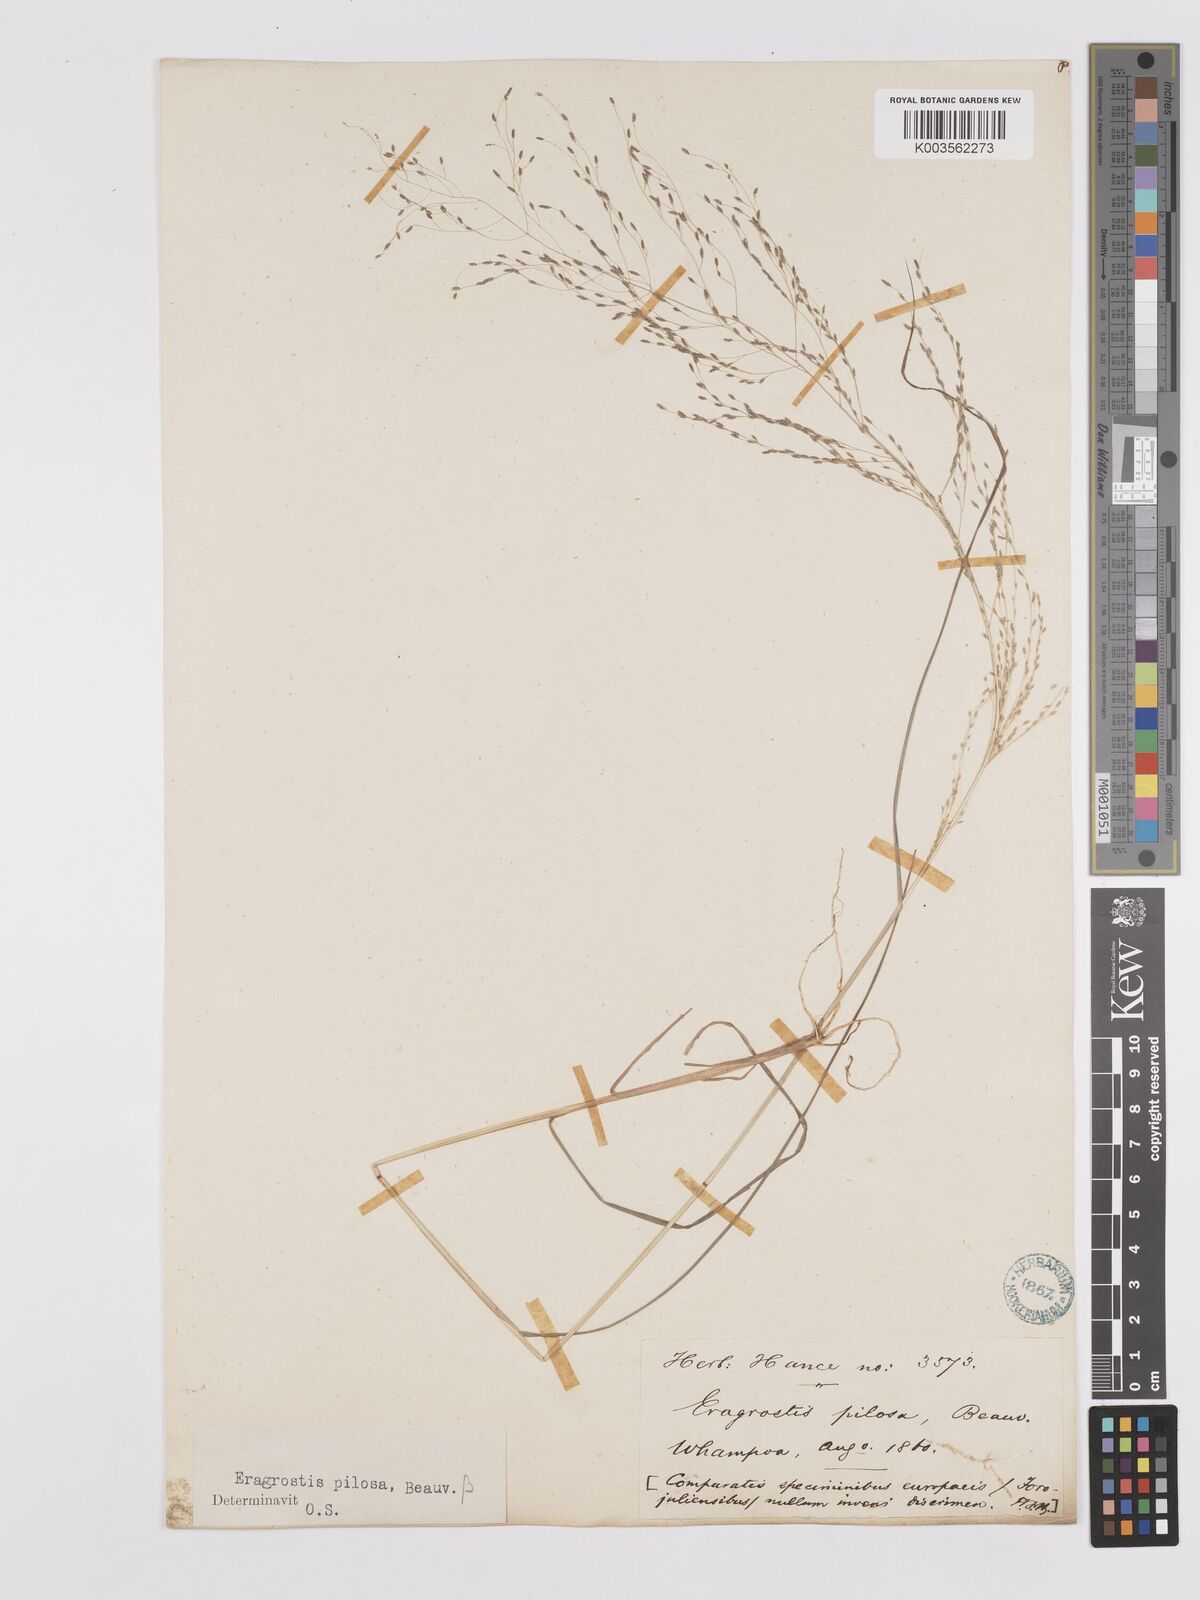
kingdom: Plantae
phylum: Tracheophyta
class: Liliopsida
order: Poales
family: Poaceae
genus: Eragrostis
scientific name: Eragrostis pilosa
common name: Indian lovegrass
